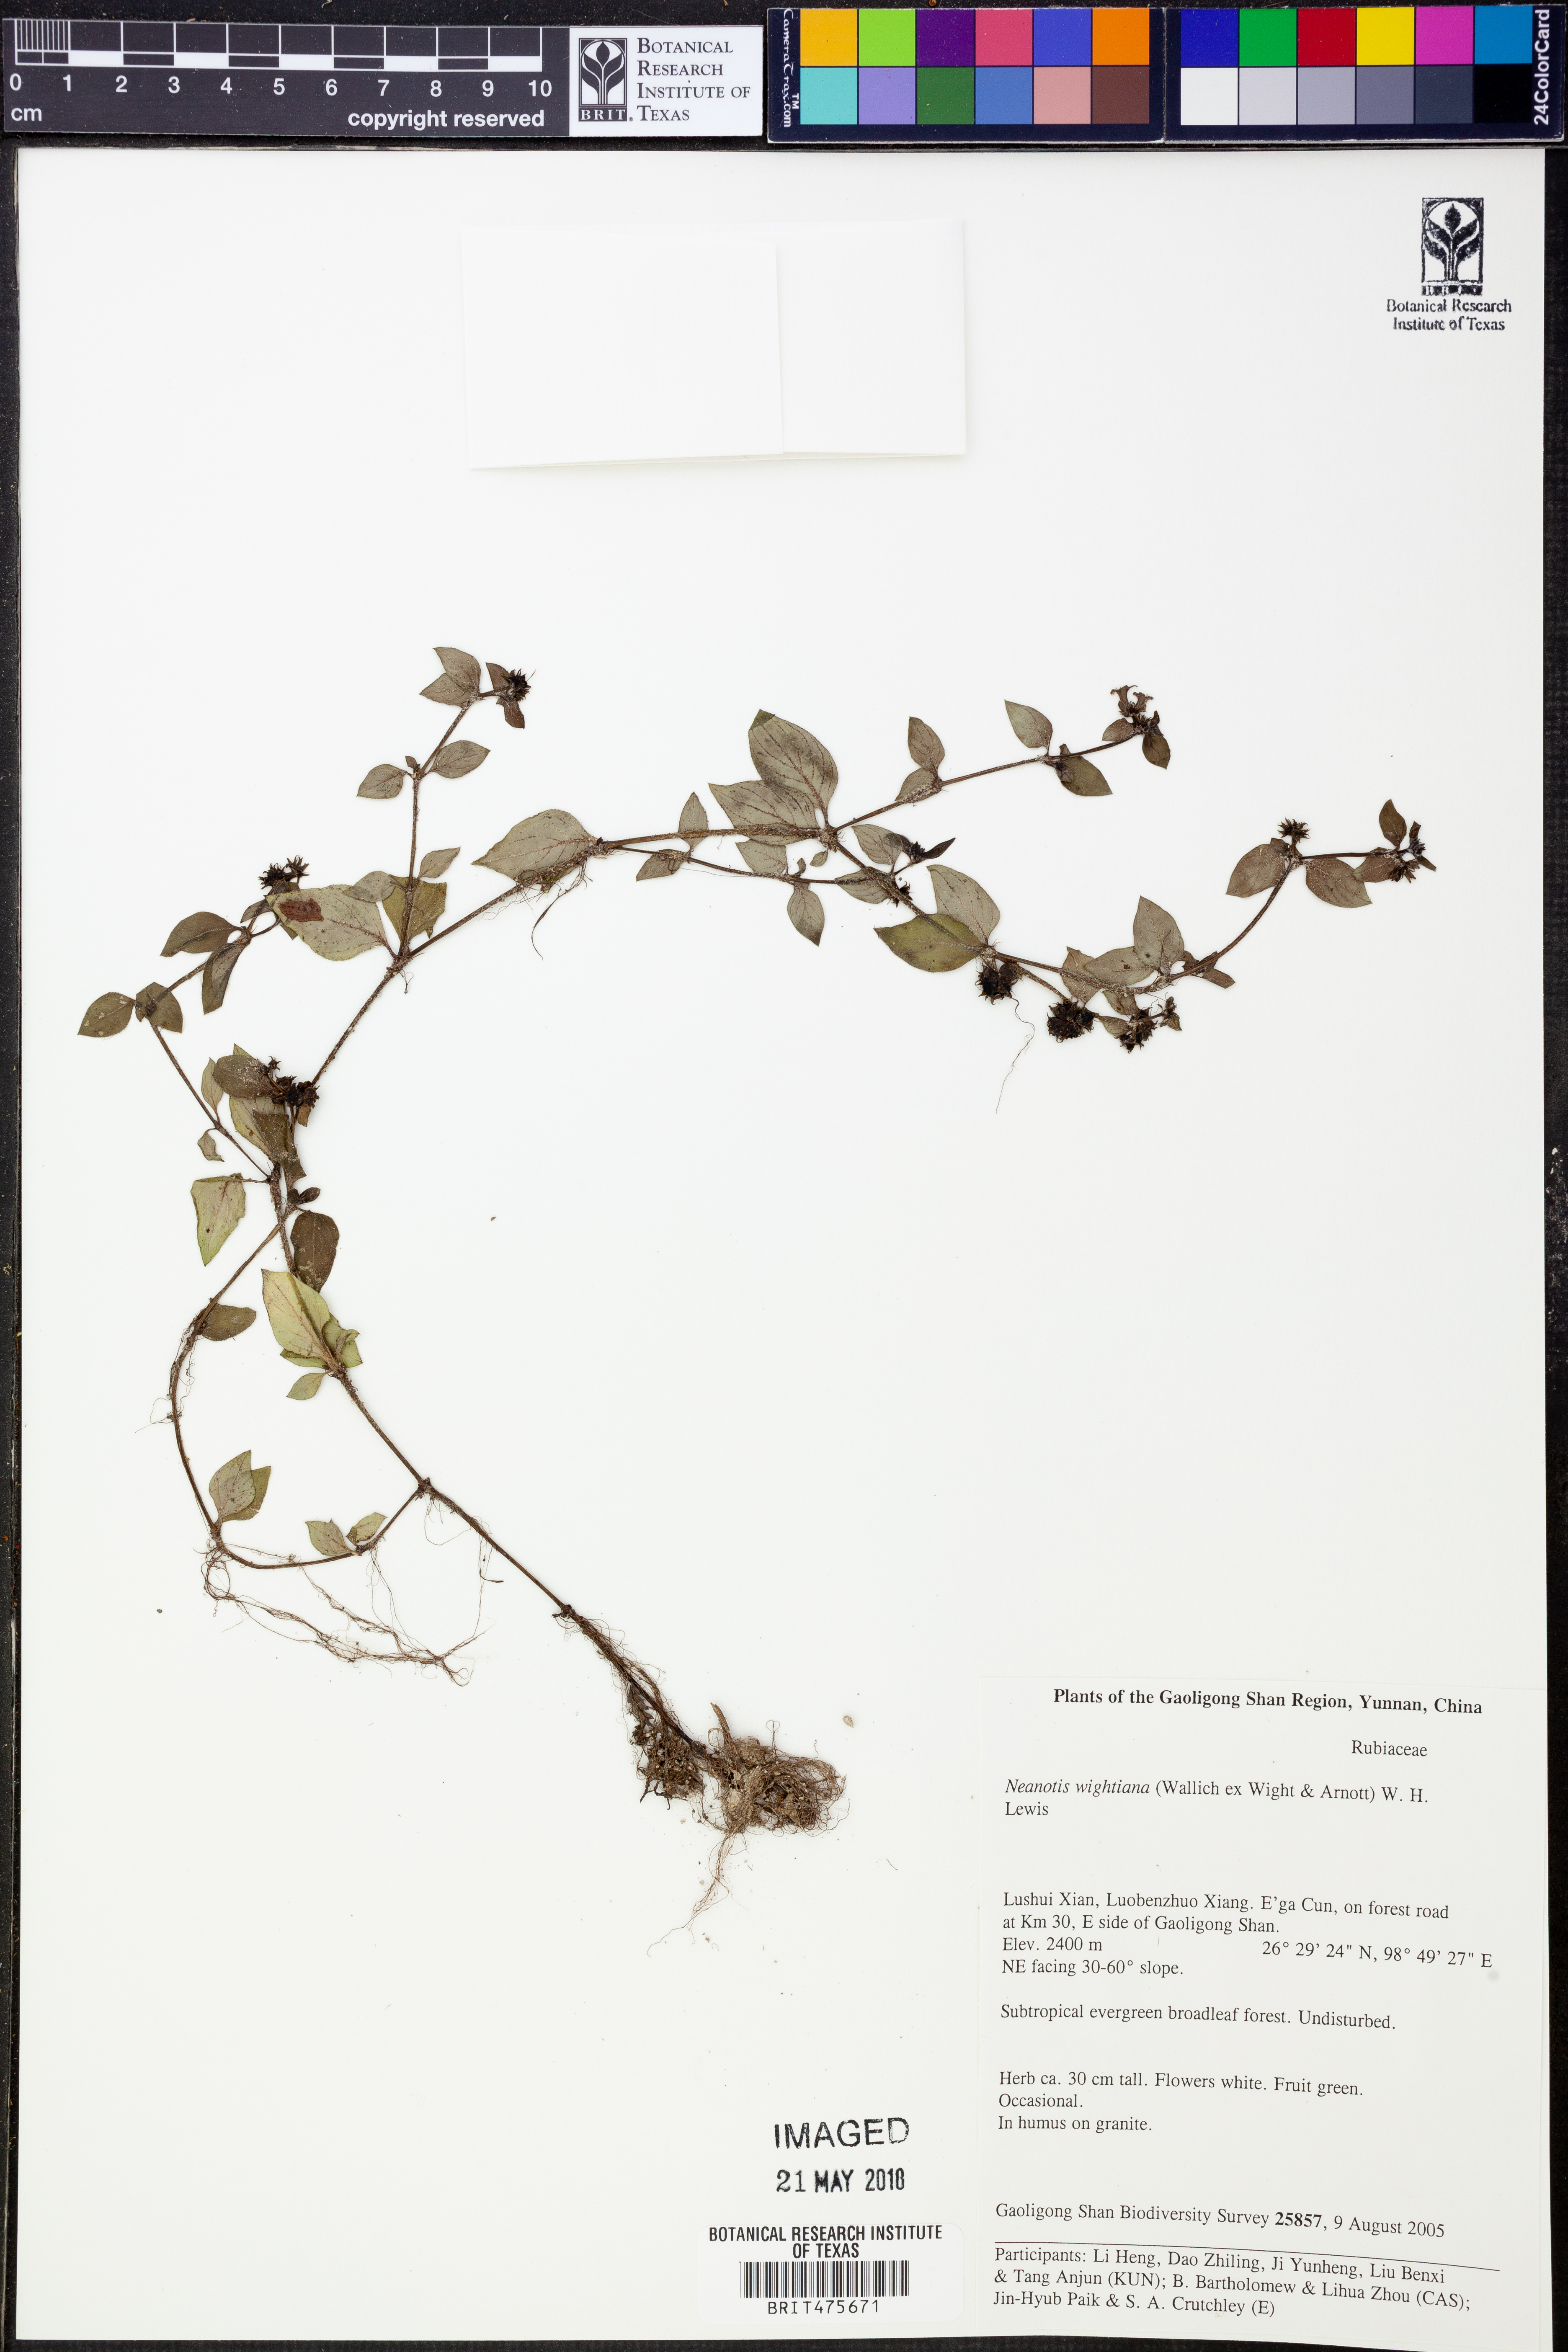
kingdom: Plantae
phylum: Tracheophyta
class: Magnoliopsida
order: Gentianales
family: Rubiaceae
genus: Neanotis
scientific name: Neanotis wightiana
